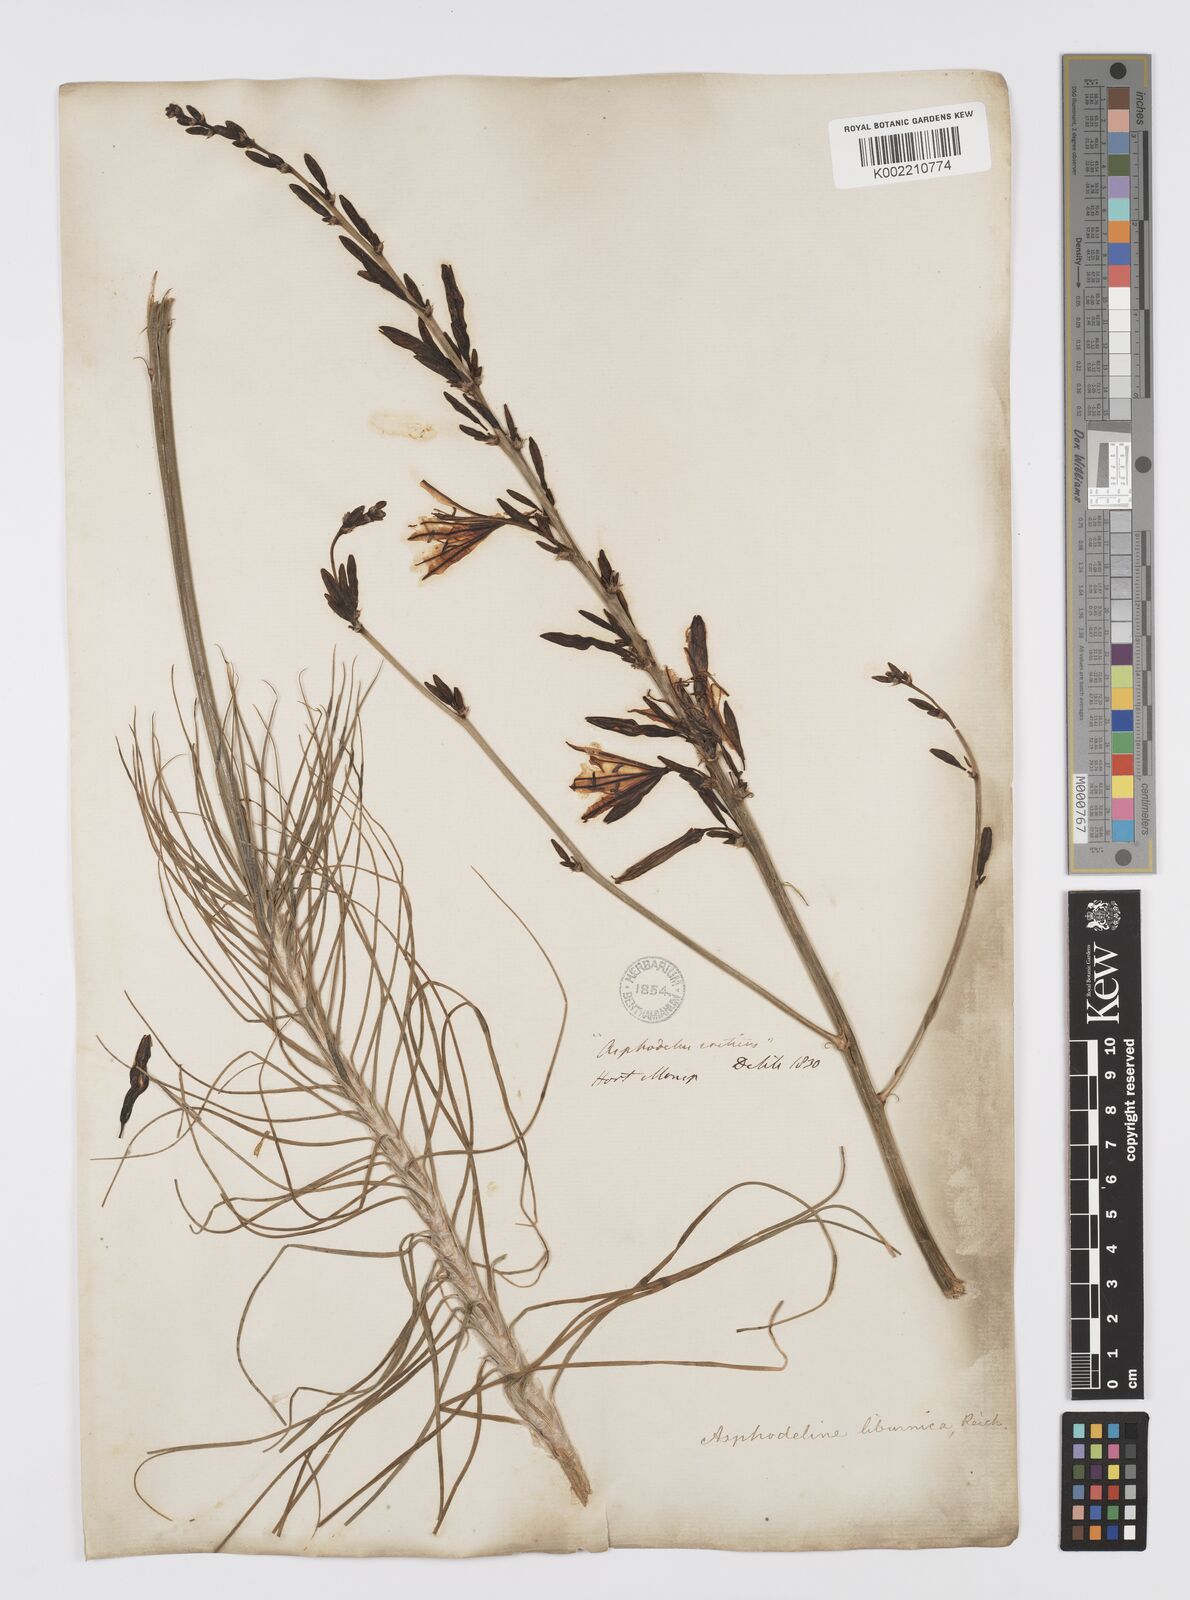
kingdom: Plantae
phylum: Tracheophyta
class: Liliopsida
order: Asparagales
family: Asphodelaceae
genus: Asphodeline
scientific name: Asphodeline liburnica
